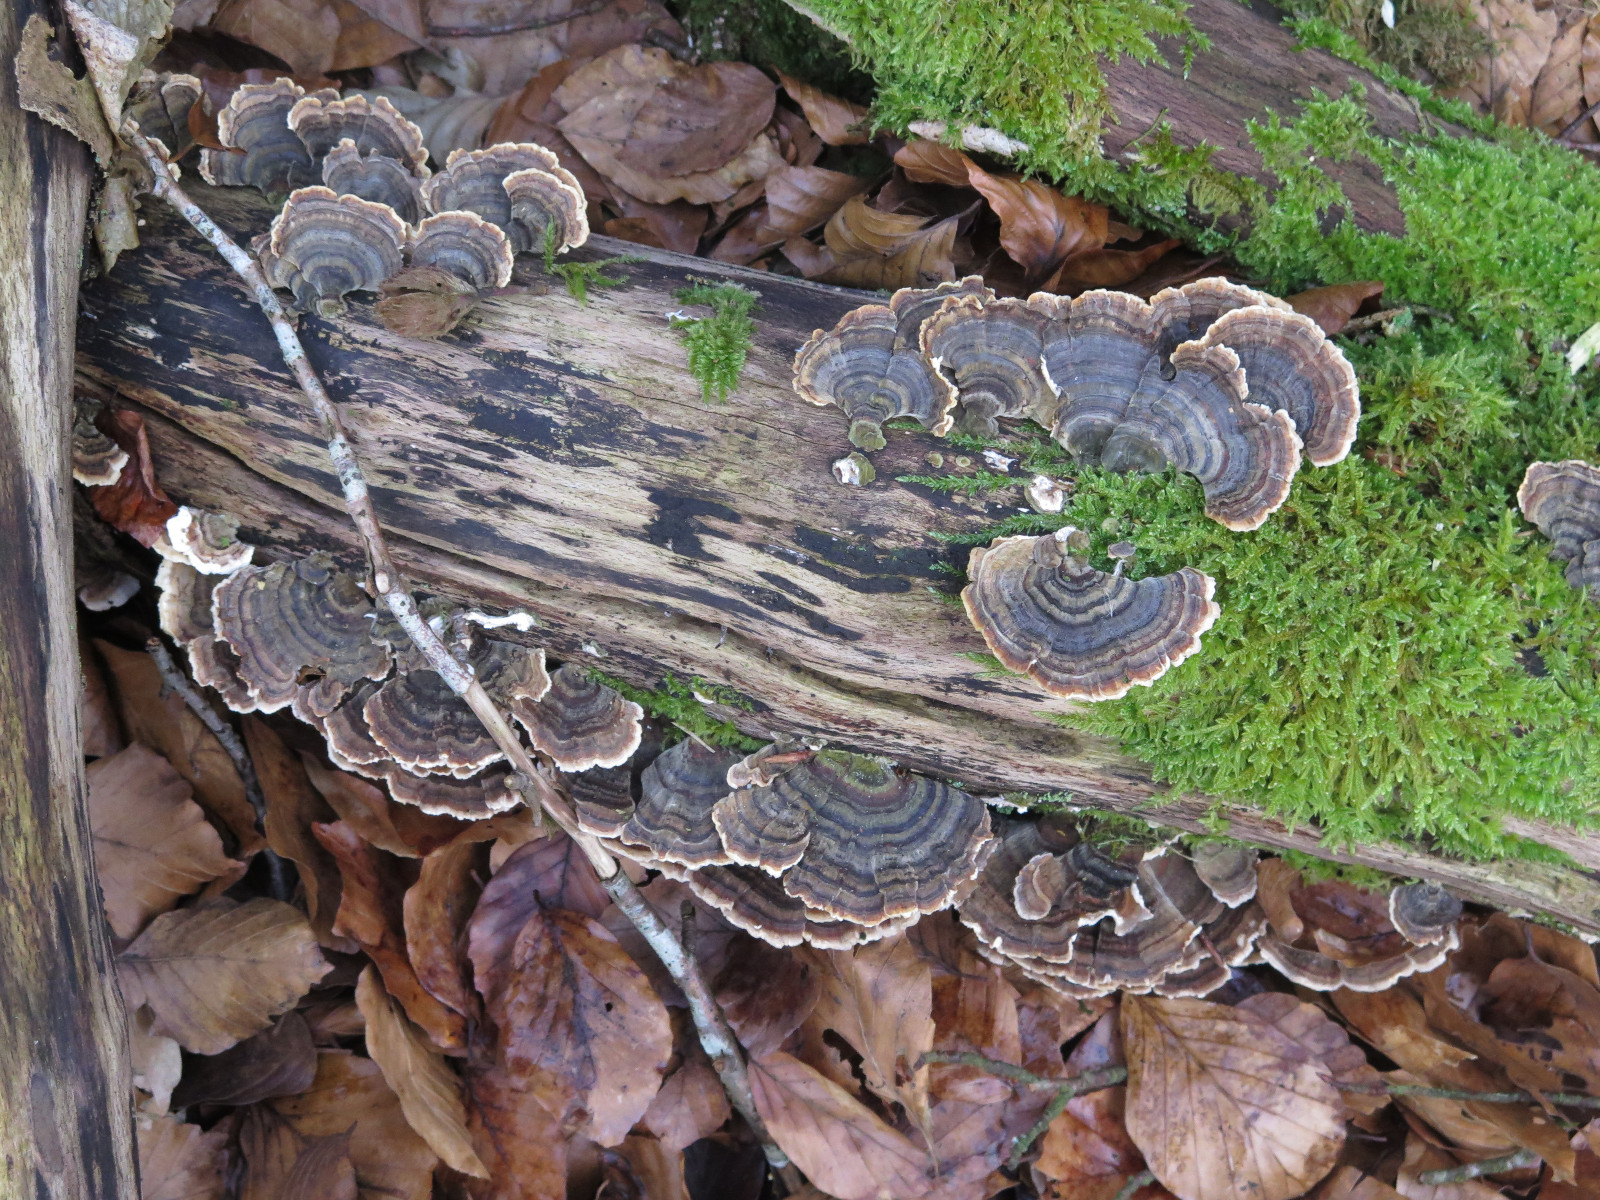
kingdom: Fungi
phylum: Basidiomycota
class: Agaricomycetes
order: Polyporales
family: Polyporaceae
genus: Trametes
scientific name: Trametes versicolor
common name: broget læderporesvamp
